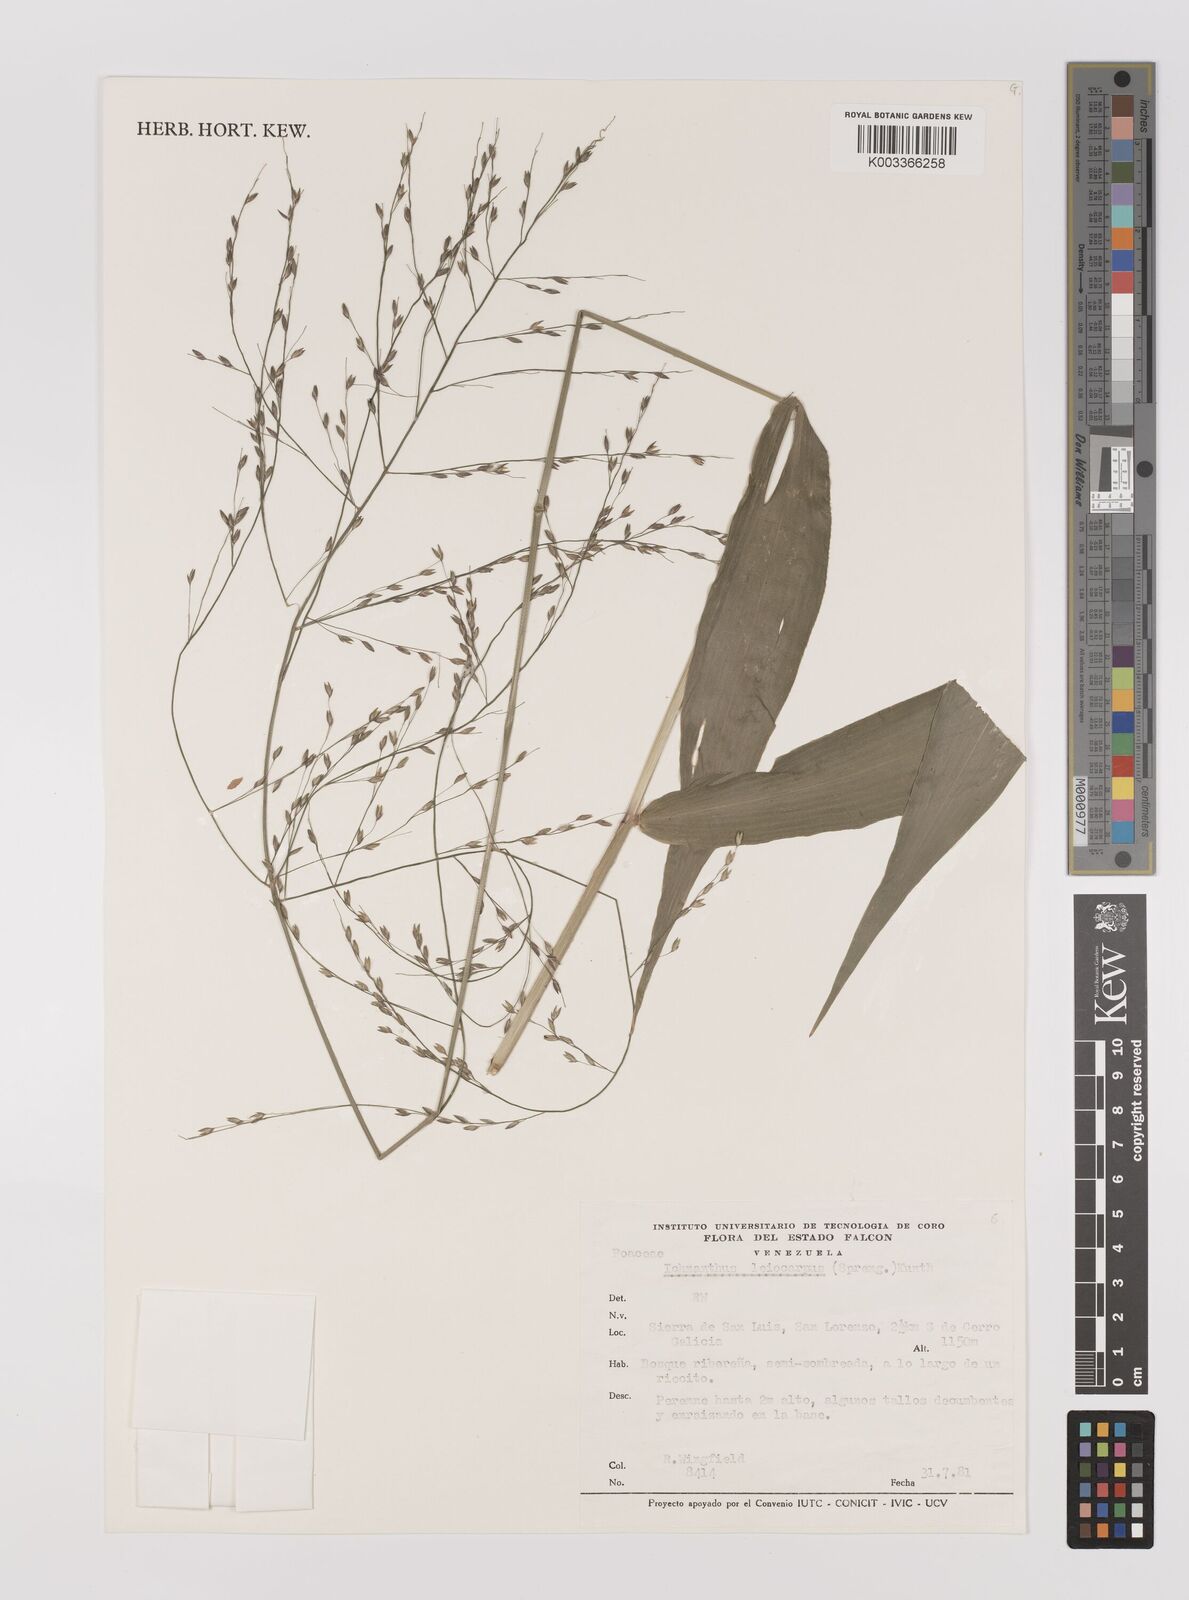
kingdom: Plantae
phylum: Tracheophyta
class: Liliopsida
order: Poales
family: Poaceae
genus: Ichnanthus
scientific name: Ichnanthus leiocarpus
